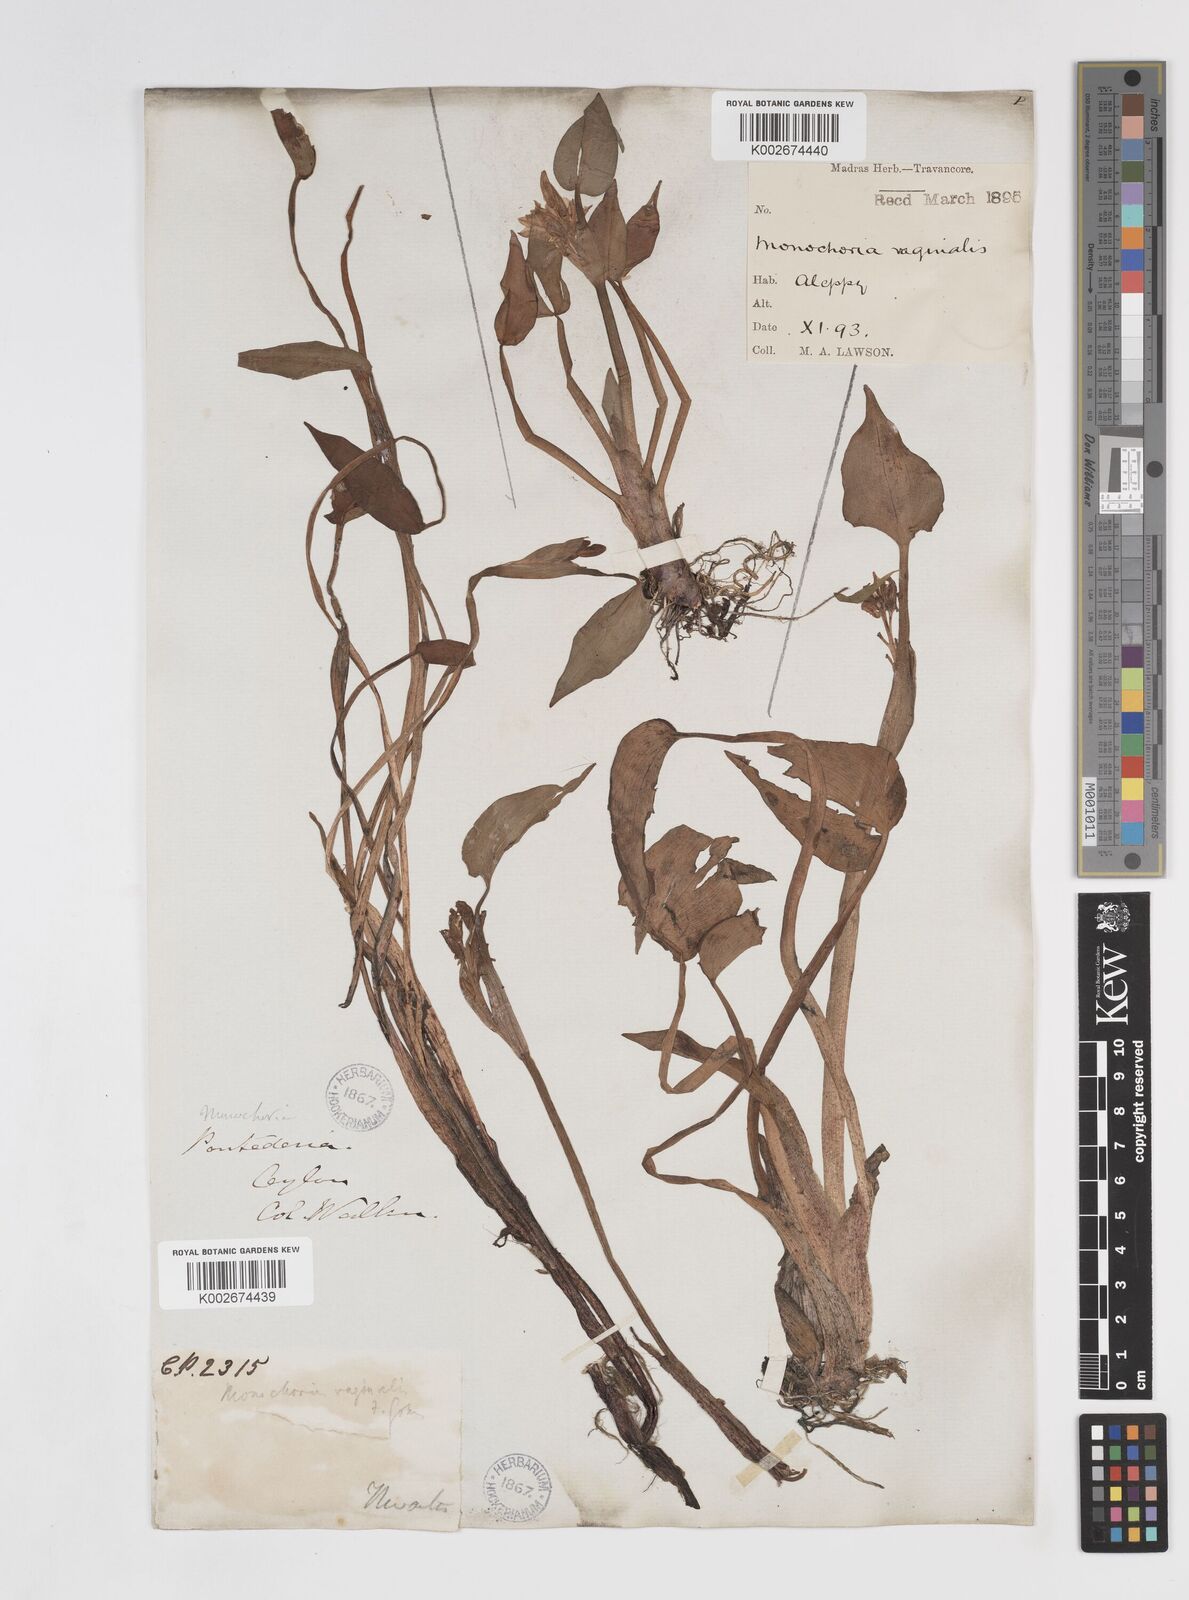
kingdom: Plantae
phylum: Tracheophyta
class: Liliopsida
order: Commelinales
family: Pontederiaceae
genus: Pontederia
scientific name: Pontederia vaginalis
